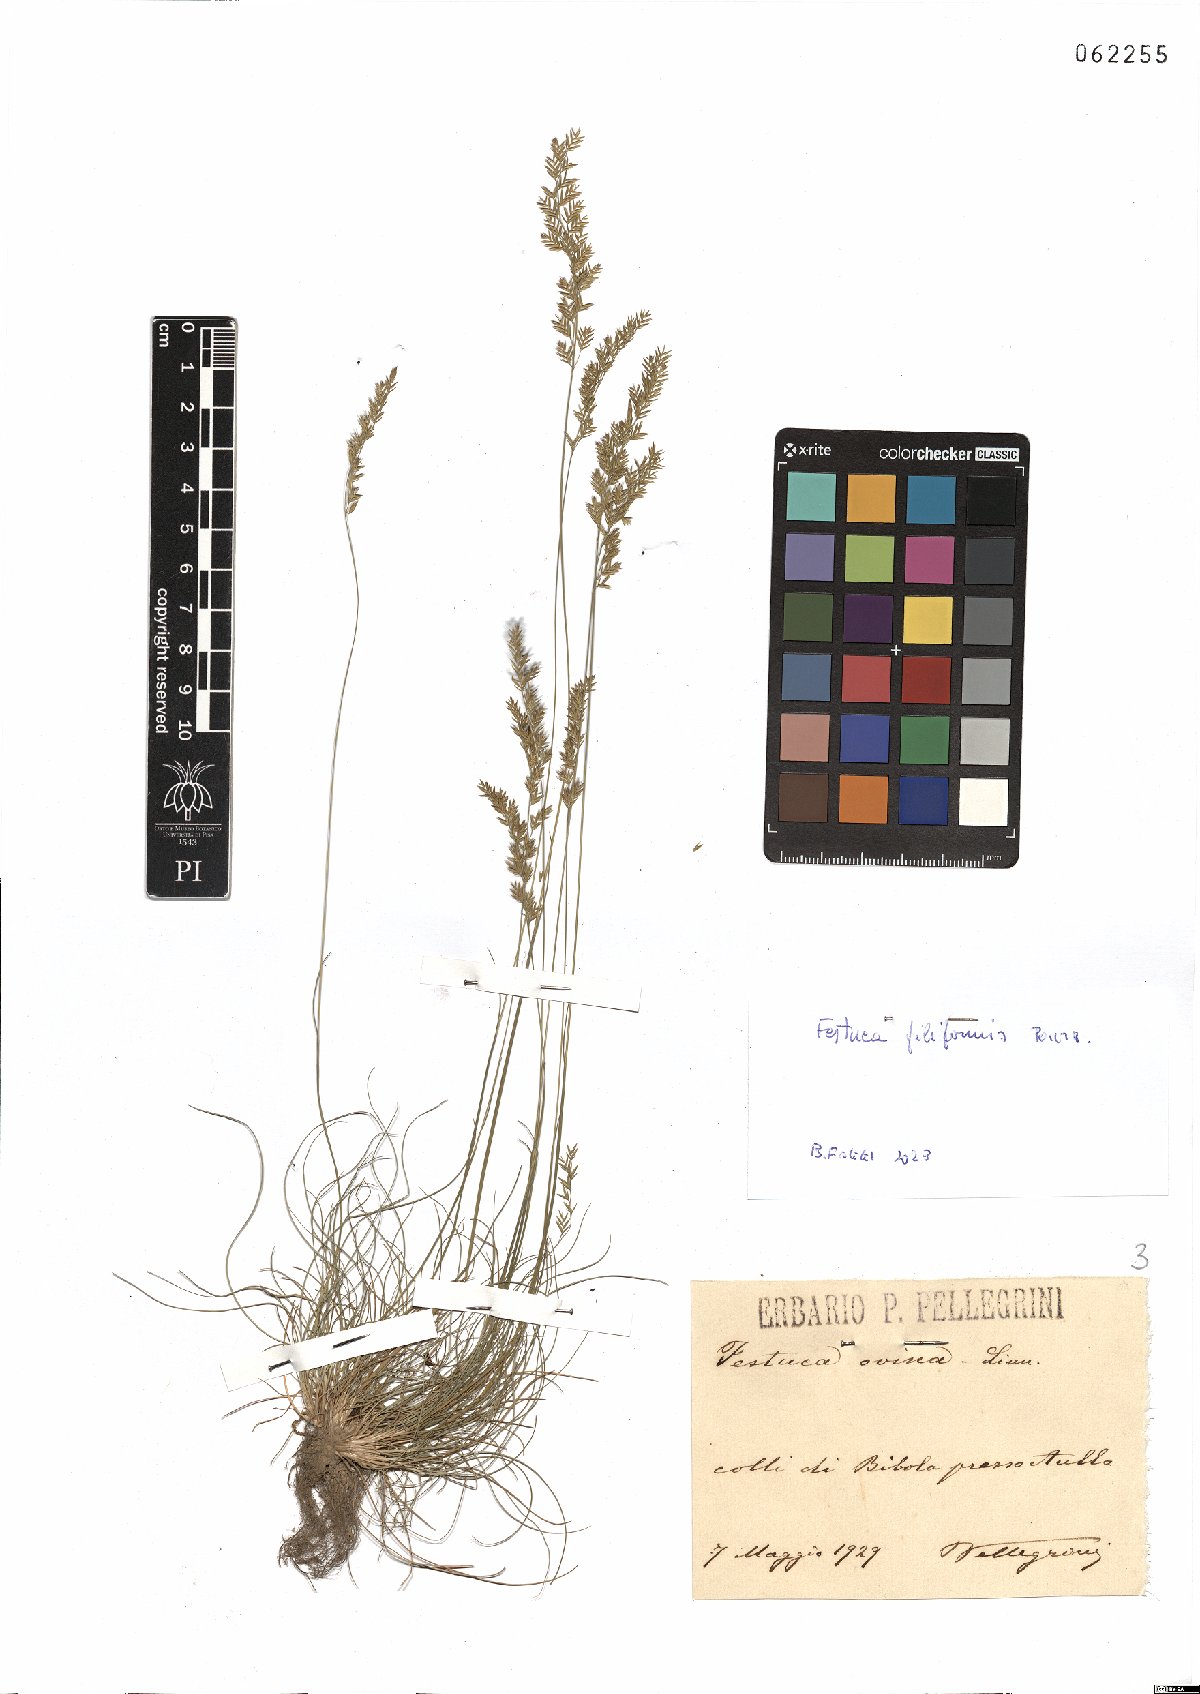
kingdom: Plantae
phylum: Tracheophyta
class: Liliopsida
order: Poales
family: Poaceae
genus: Festuca
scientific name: Festuca filiformis
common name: Fine-leaved sheep's-fescue
